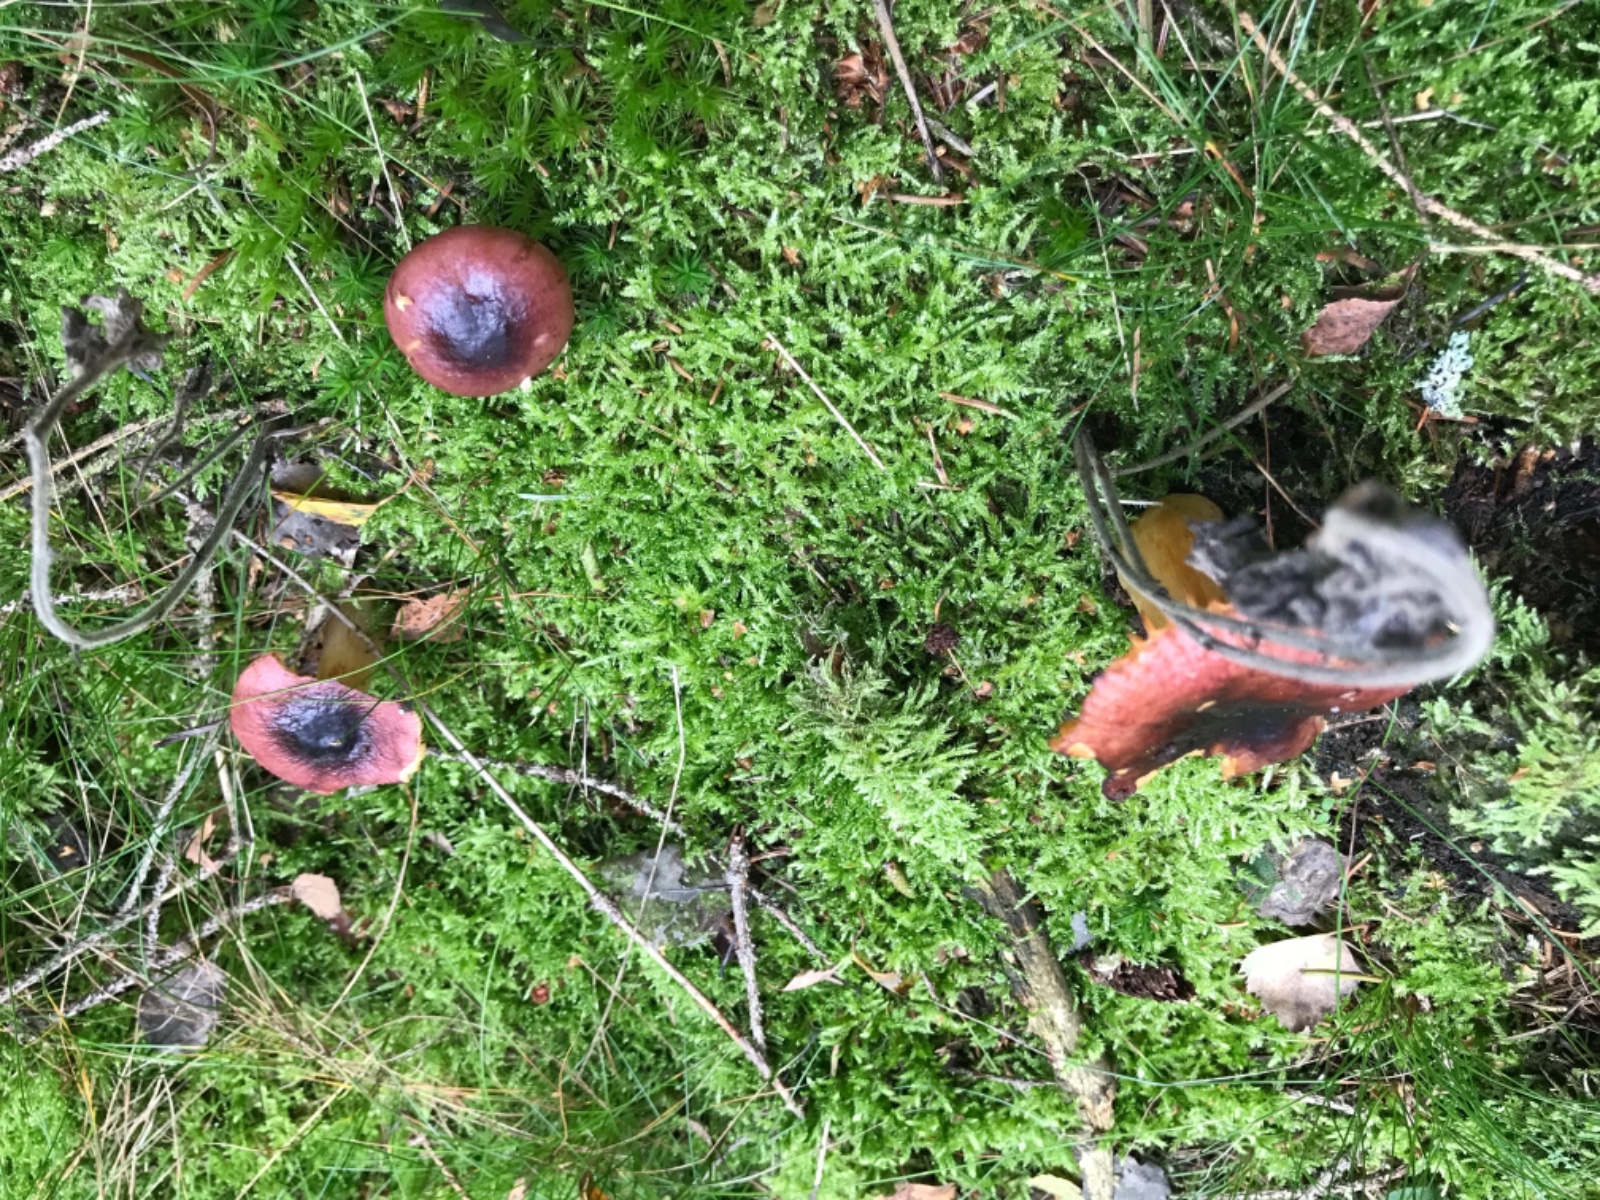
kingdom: Fungi
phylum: Basidiomycota
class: Agaricomycetes
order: Russulales
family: Russulaceae
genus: Russula
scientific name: Russula
